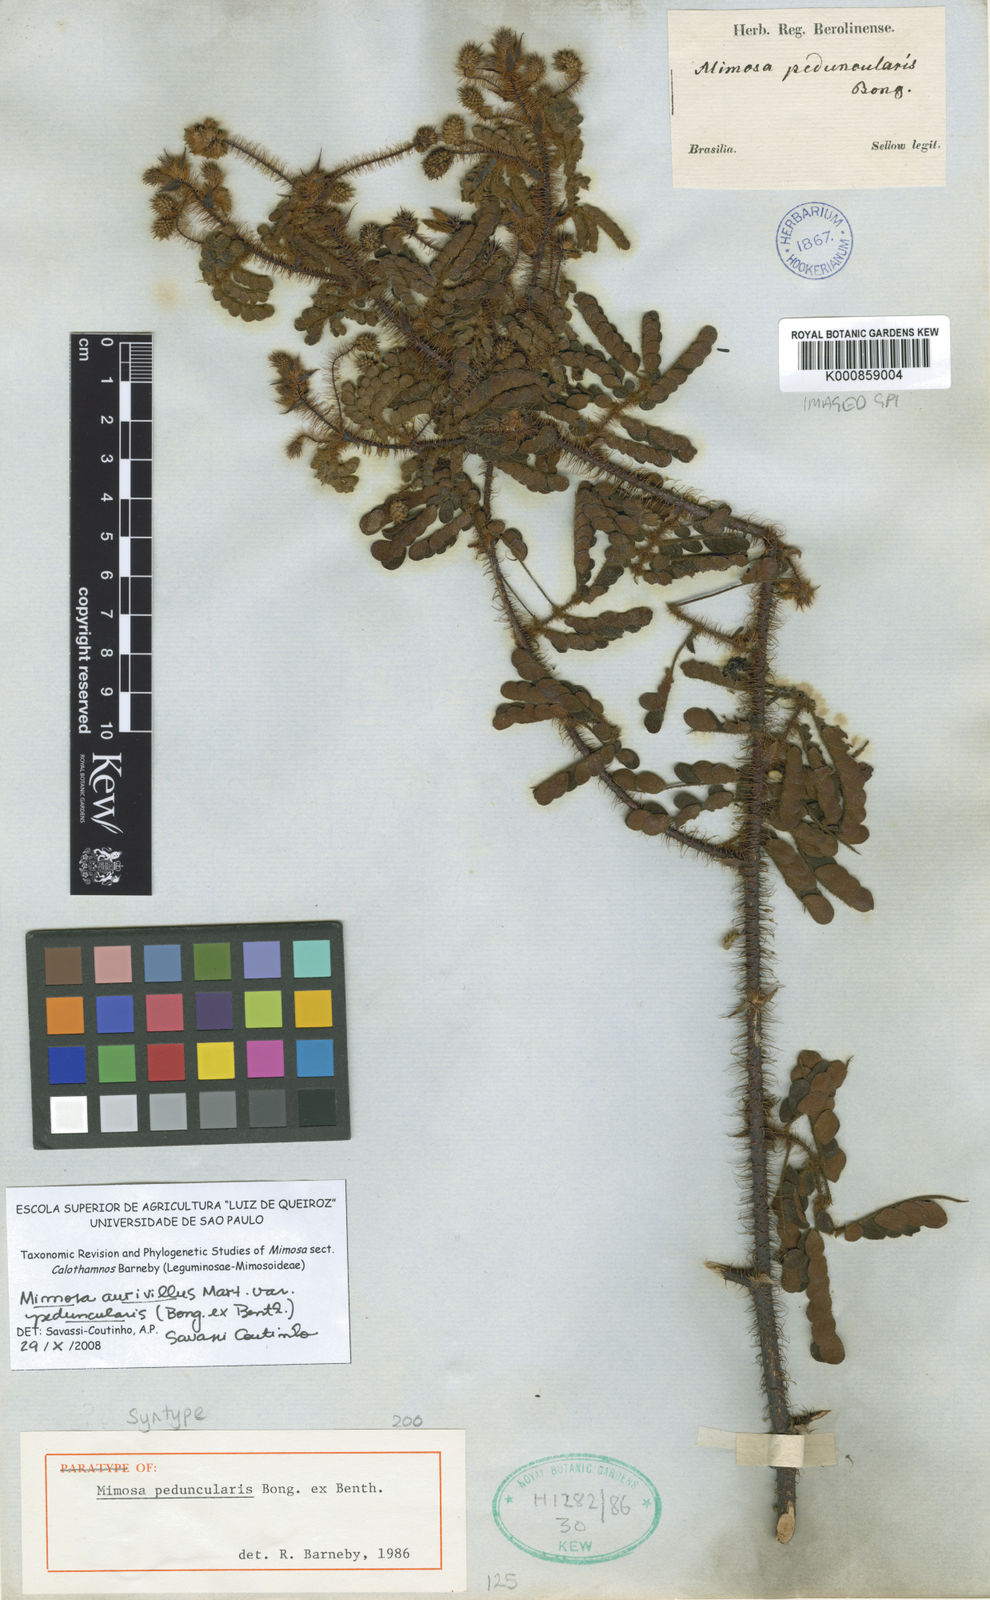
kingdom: Plantae
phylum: Tracheophyta
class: Magnoliopsida
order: Fabales
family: Fabaceae
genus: Mimosa
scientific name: Mimosa peduncularis
